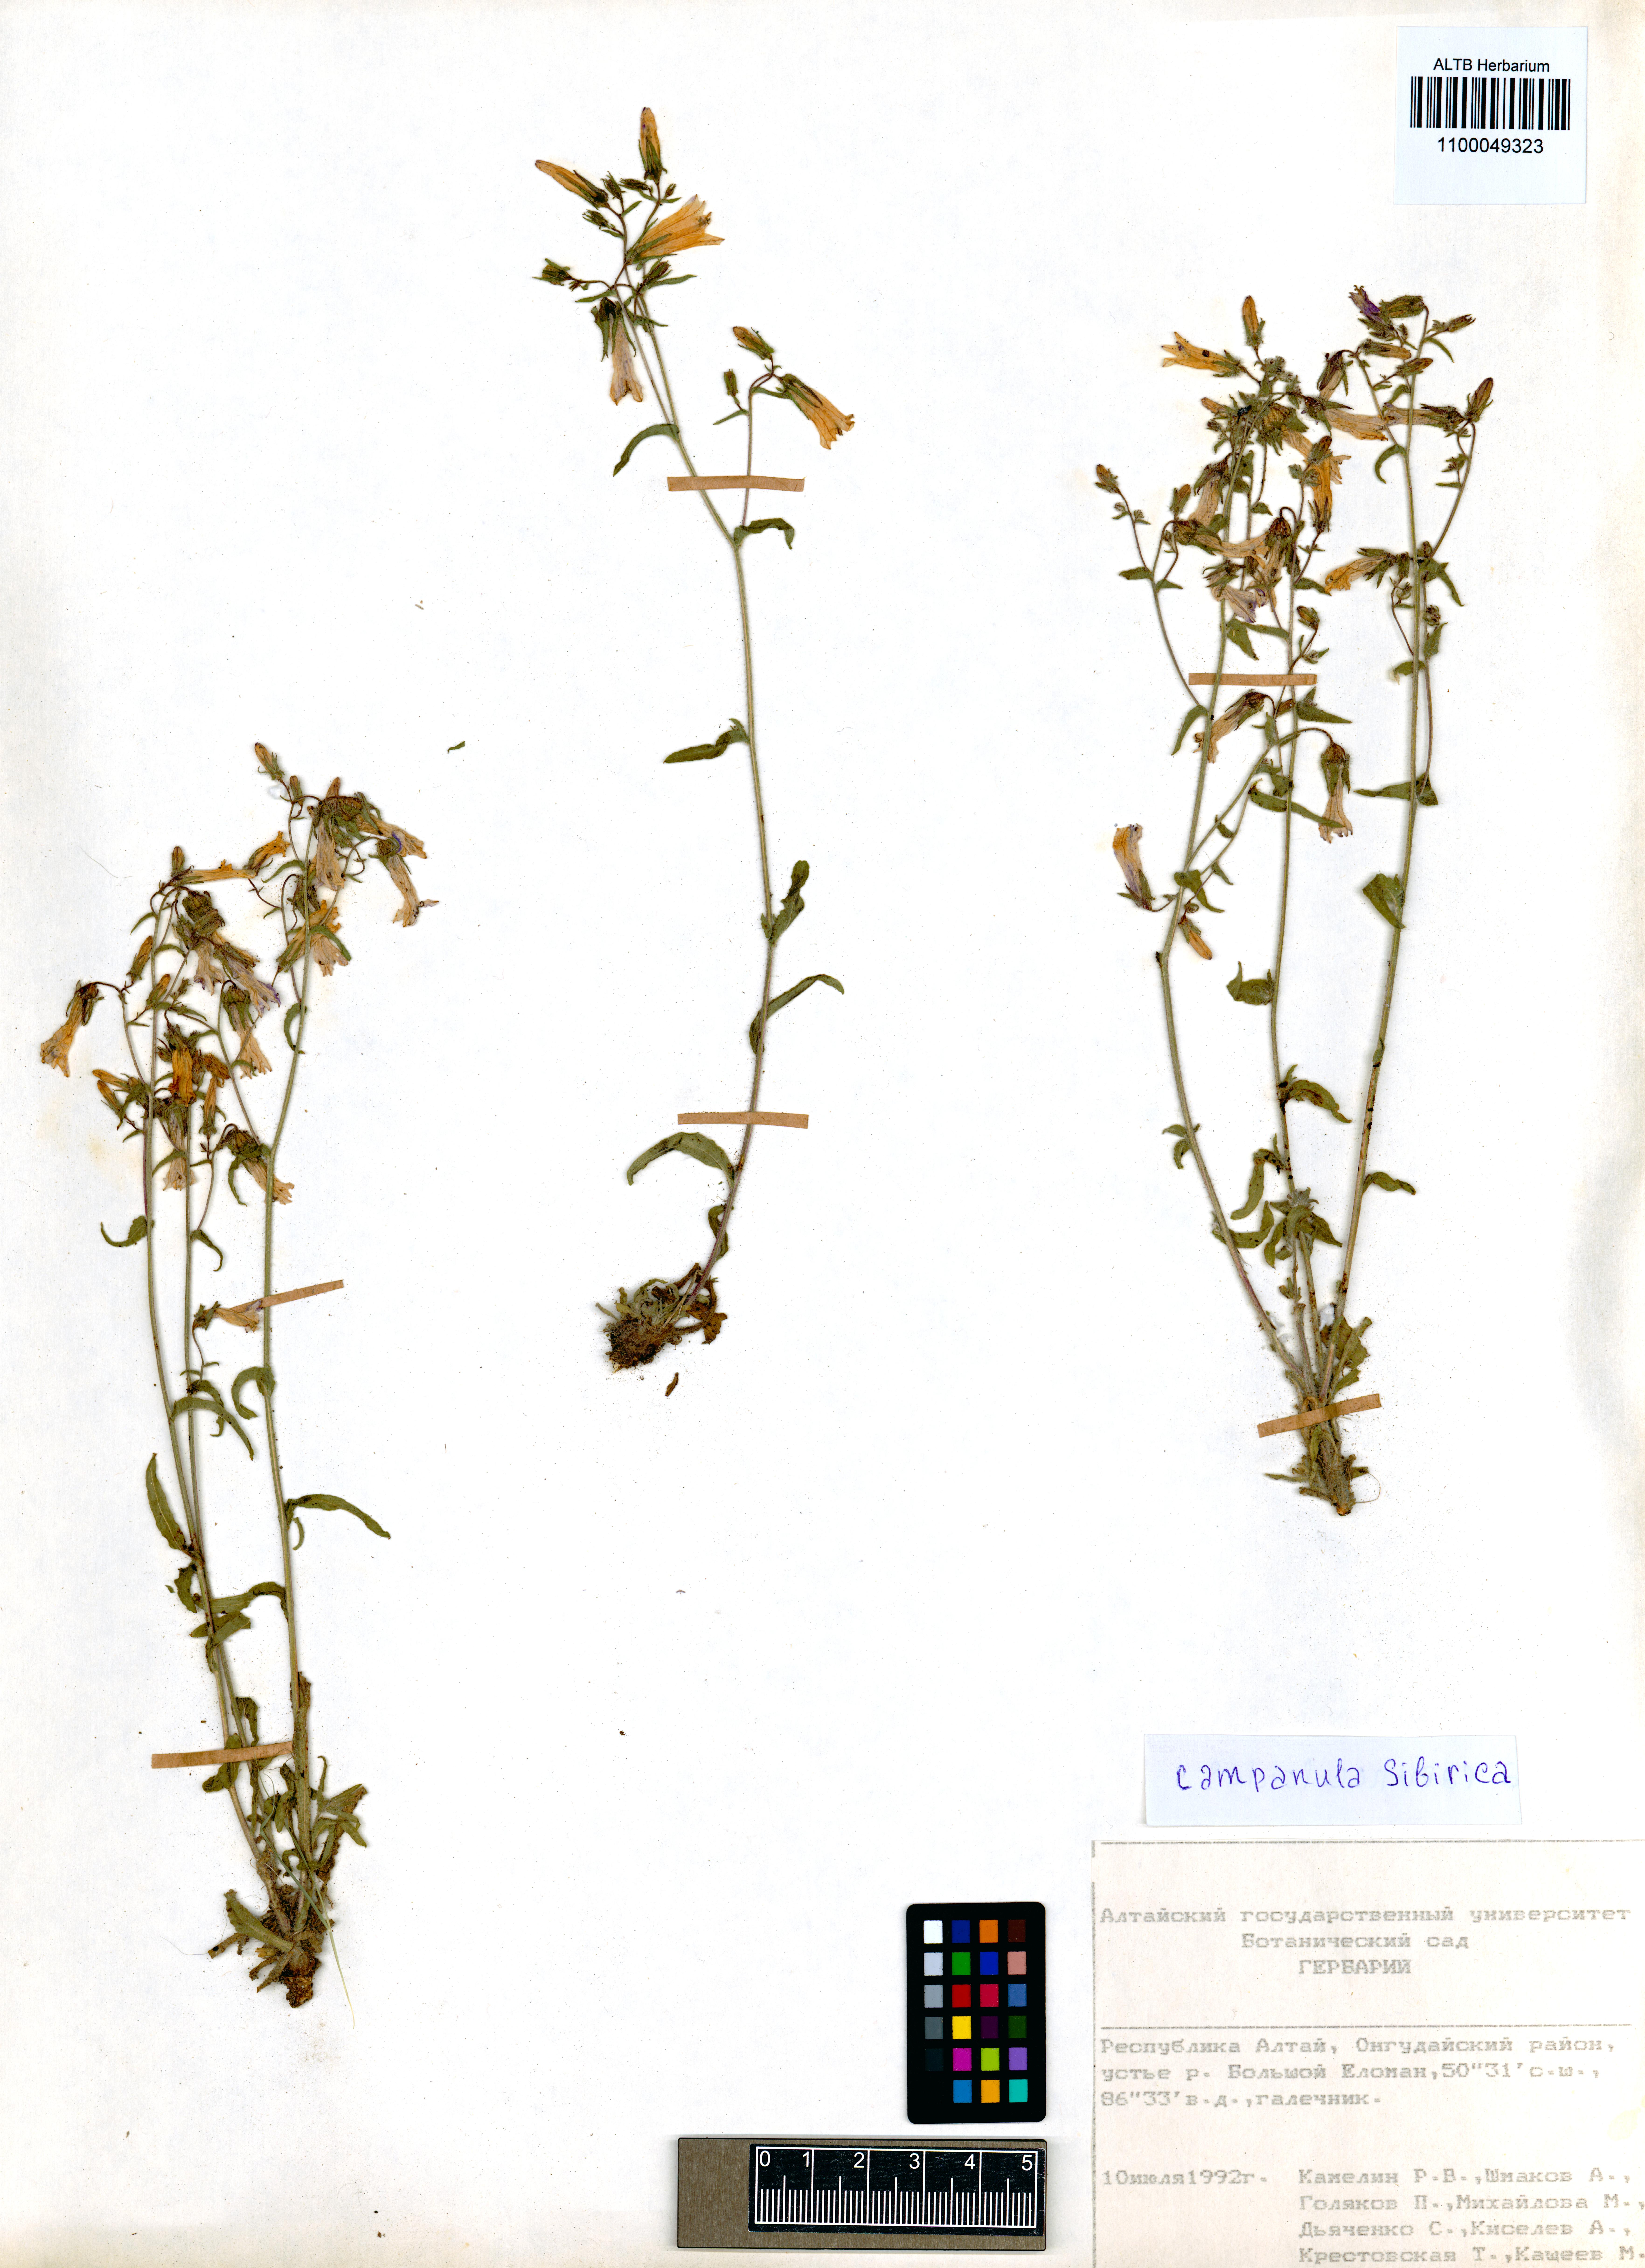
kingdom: Plantae
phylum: Tracheophyta
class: Magnoliopsida
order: Asterales
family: Campanulaceae
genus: Campanula
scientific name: Campanula sibirica
